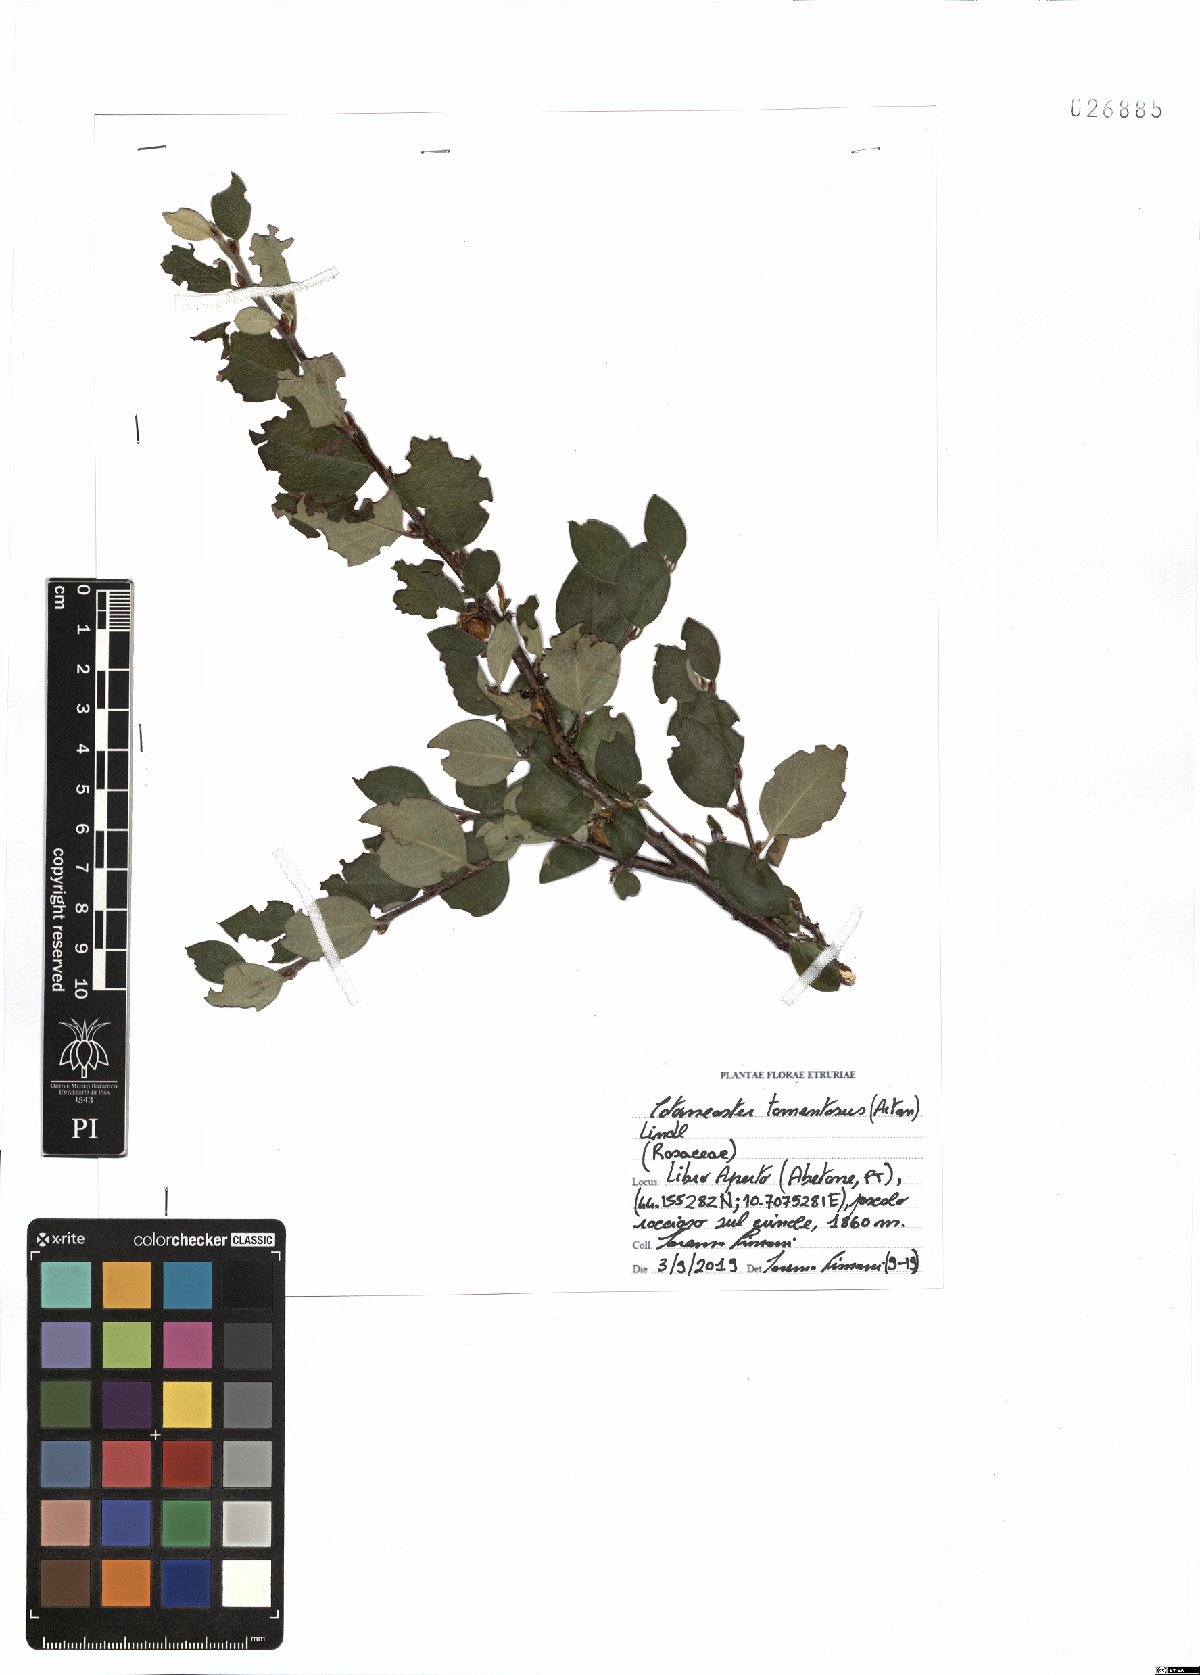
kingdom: Plantae
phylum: Tracheophyta
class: Magnoliopsida
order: Rosales
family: Rosaceae
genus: Cotoneaster
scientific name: Cotoneaster tomentosus
